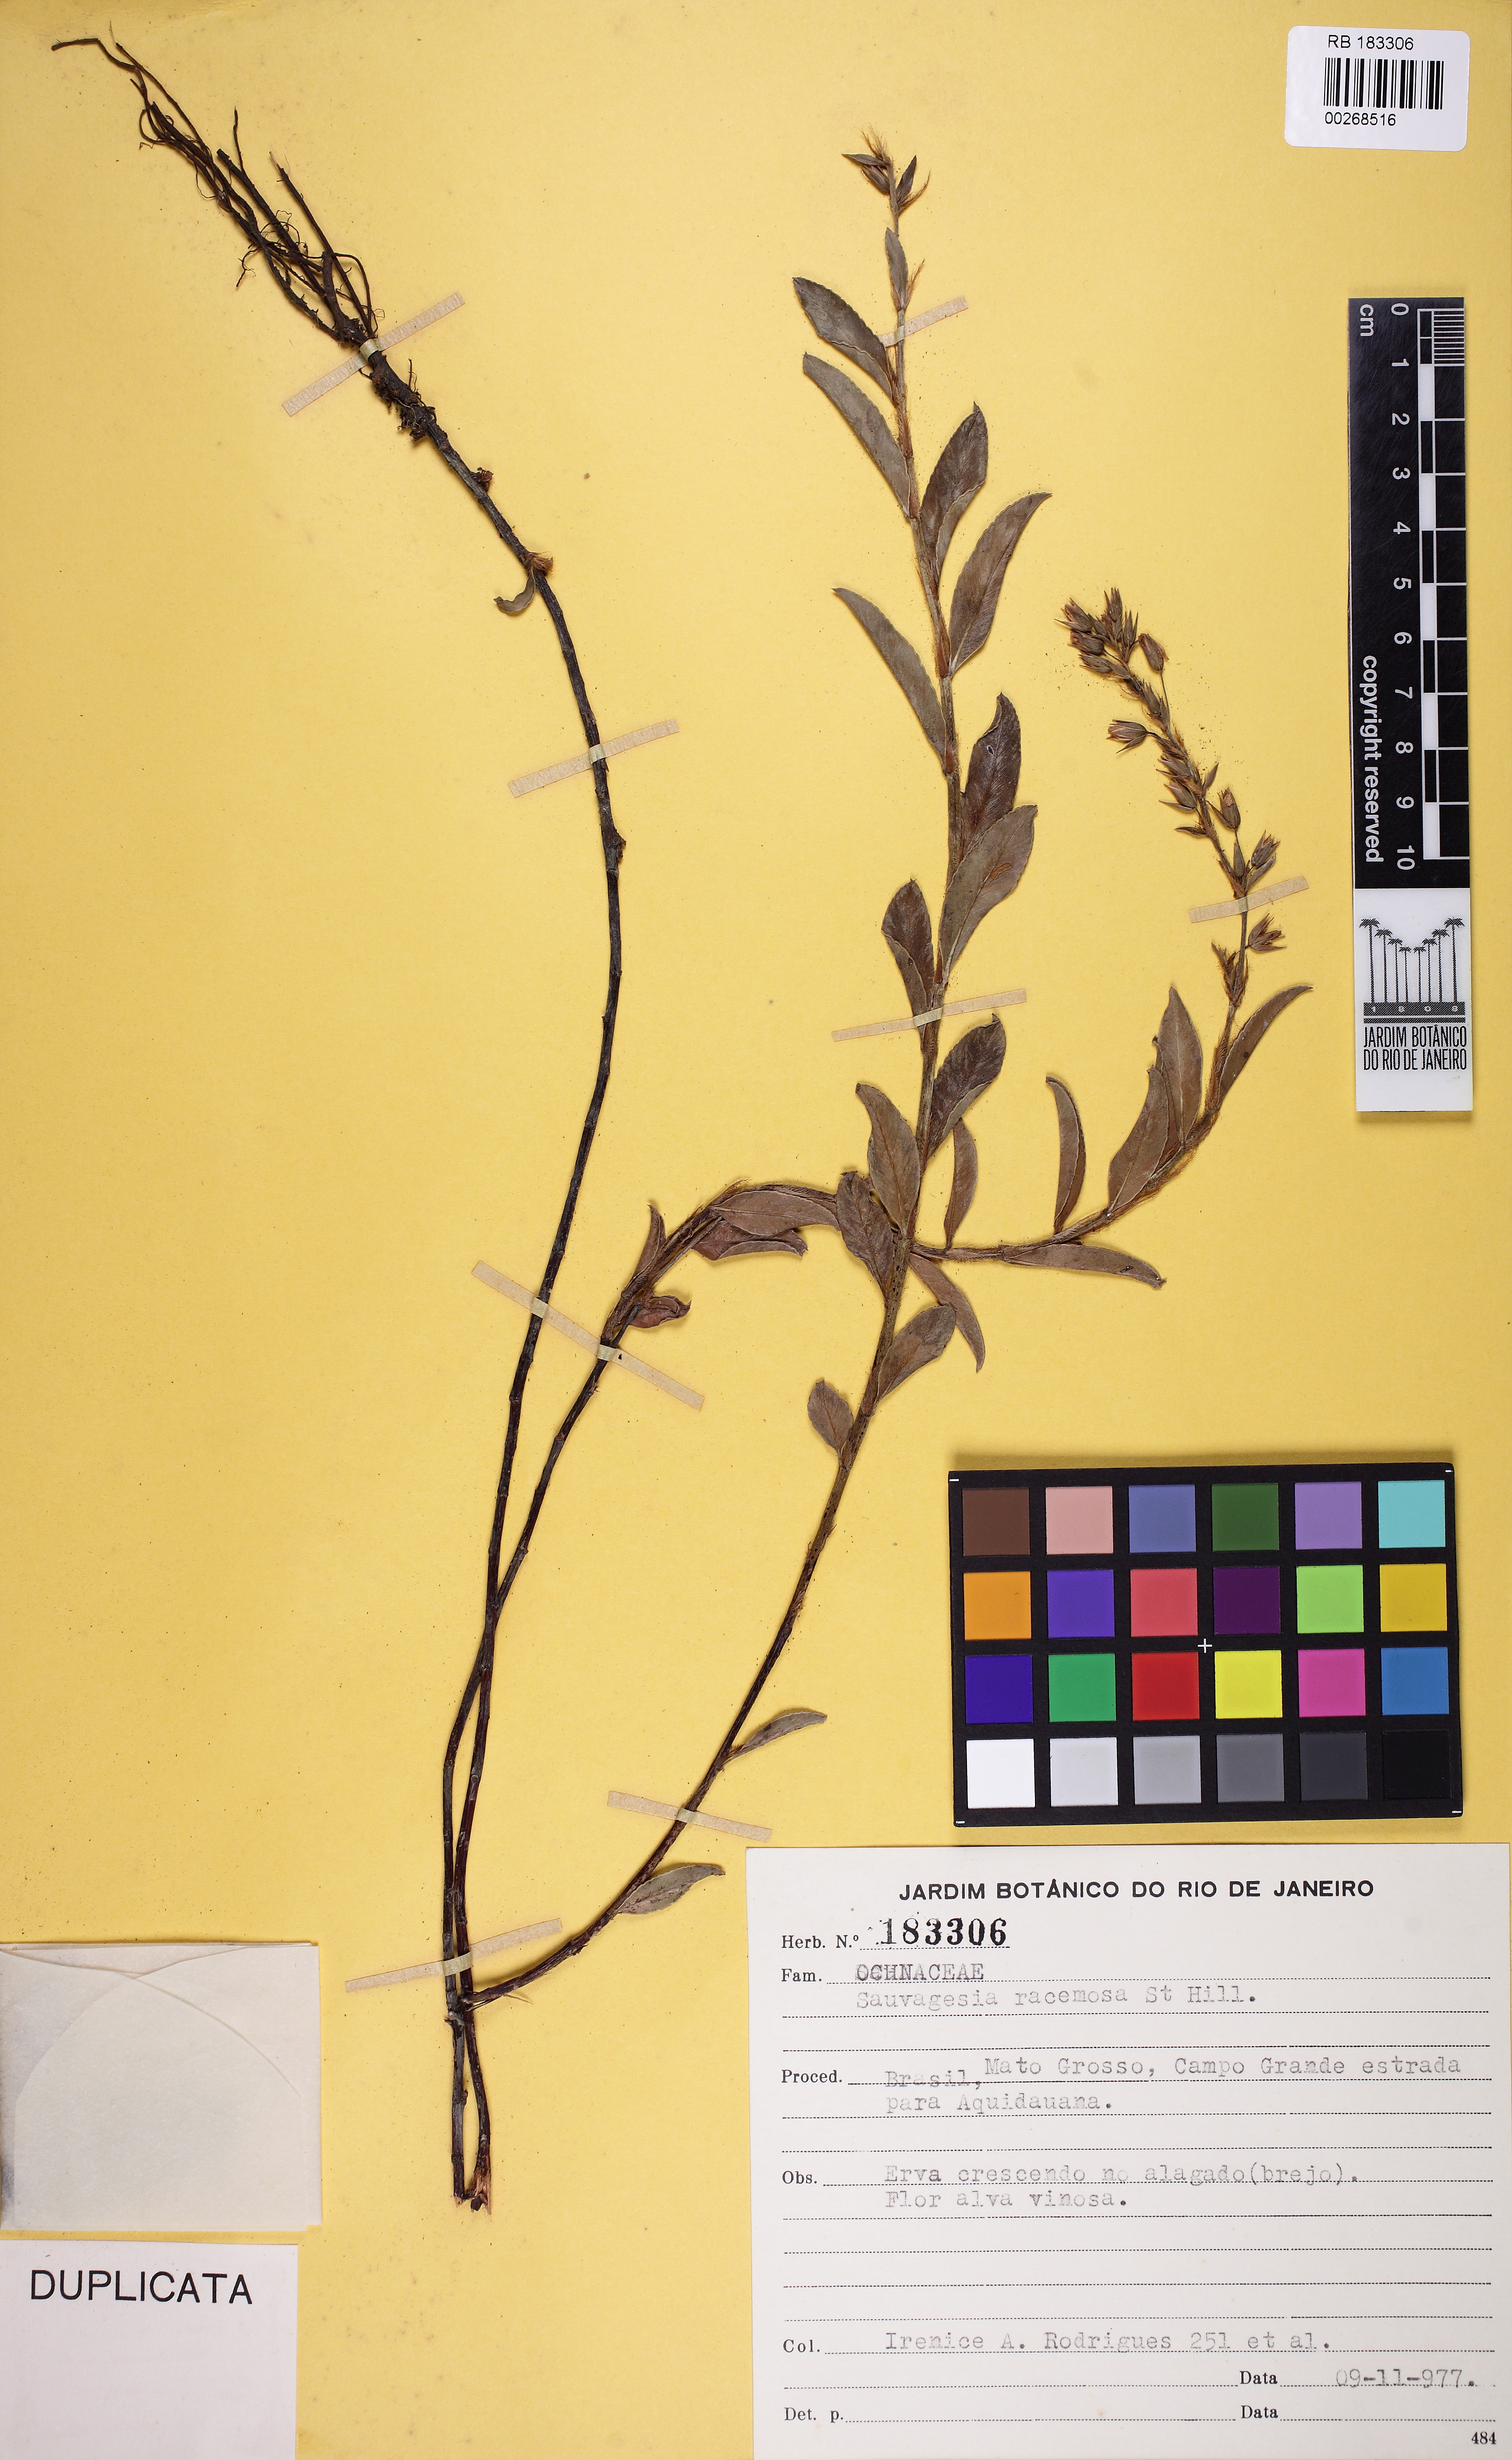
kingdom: Plantae
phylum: Tracheophyta
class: Magnoliopsida
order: Malpighiales
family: Ochnaceae
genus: Sauvagesia
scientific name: Sauvagesia racemosa
